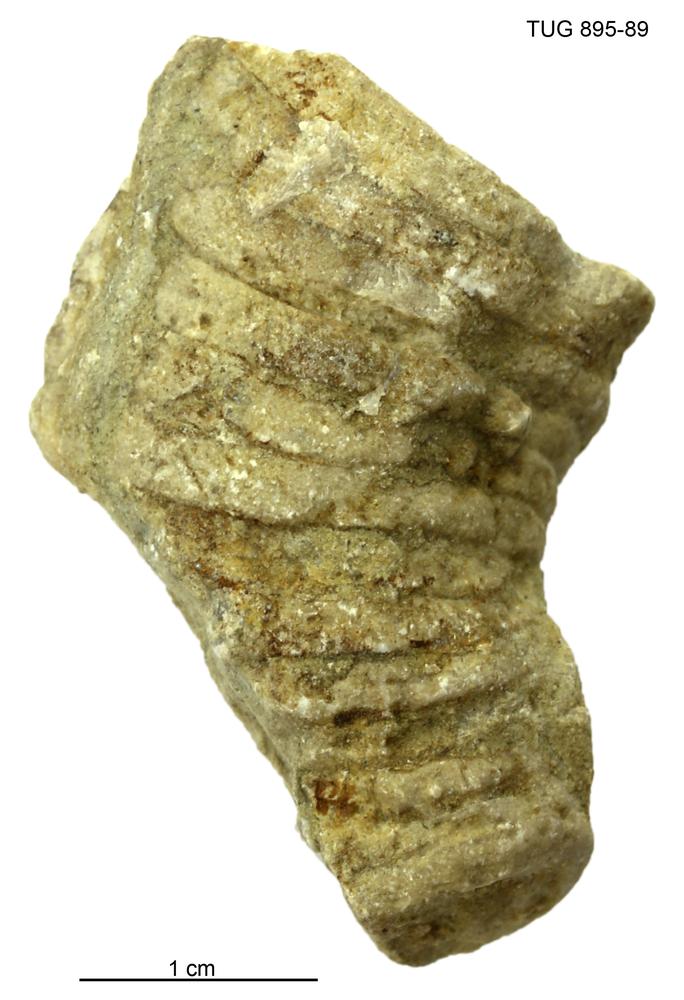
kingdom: Animalia
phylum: Mollusca
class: Cephalopoda
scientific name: Cephalopoda
